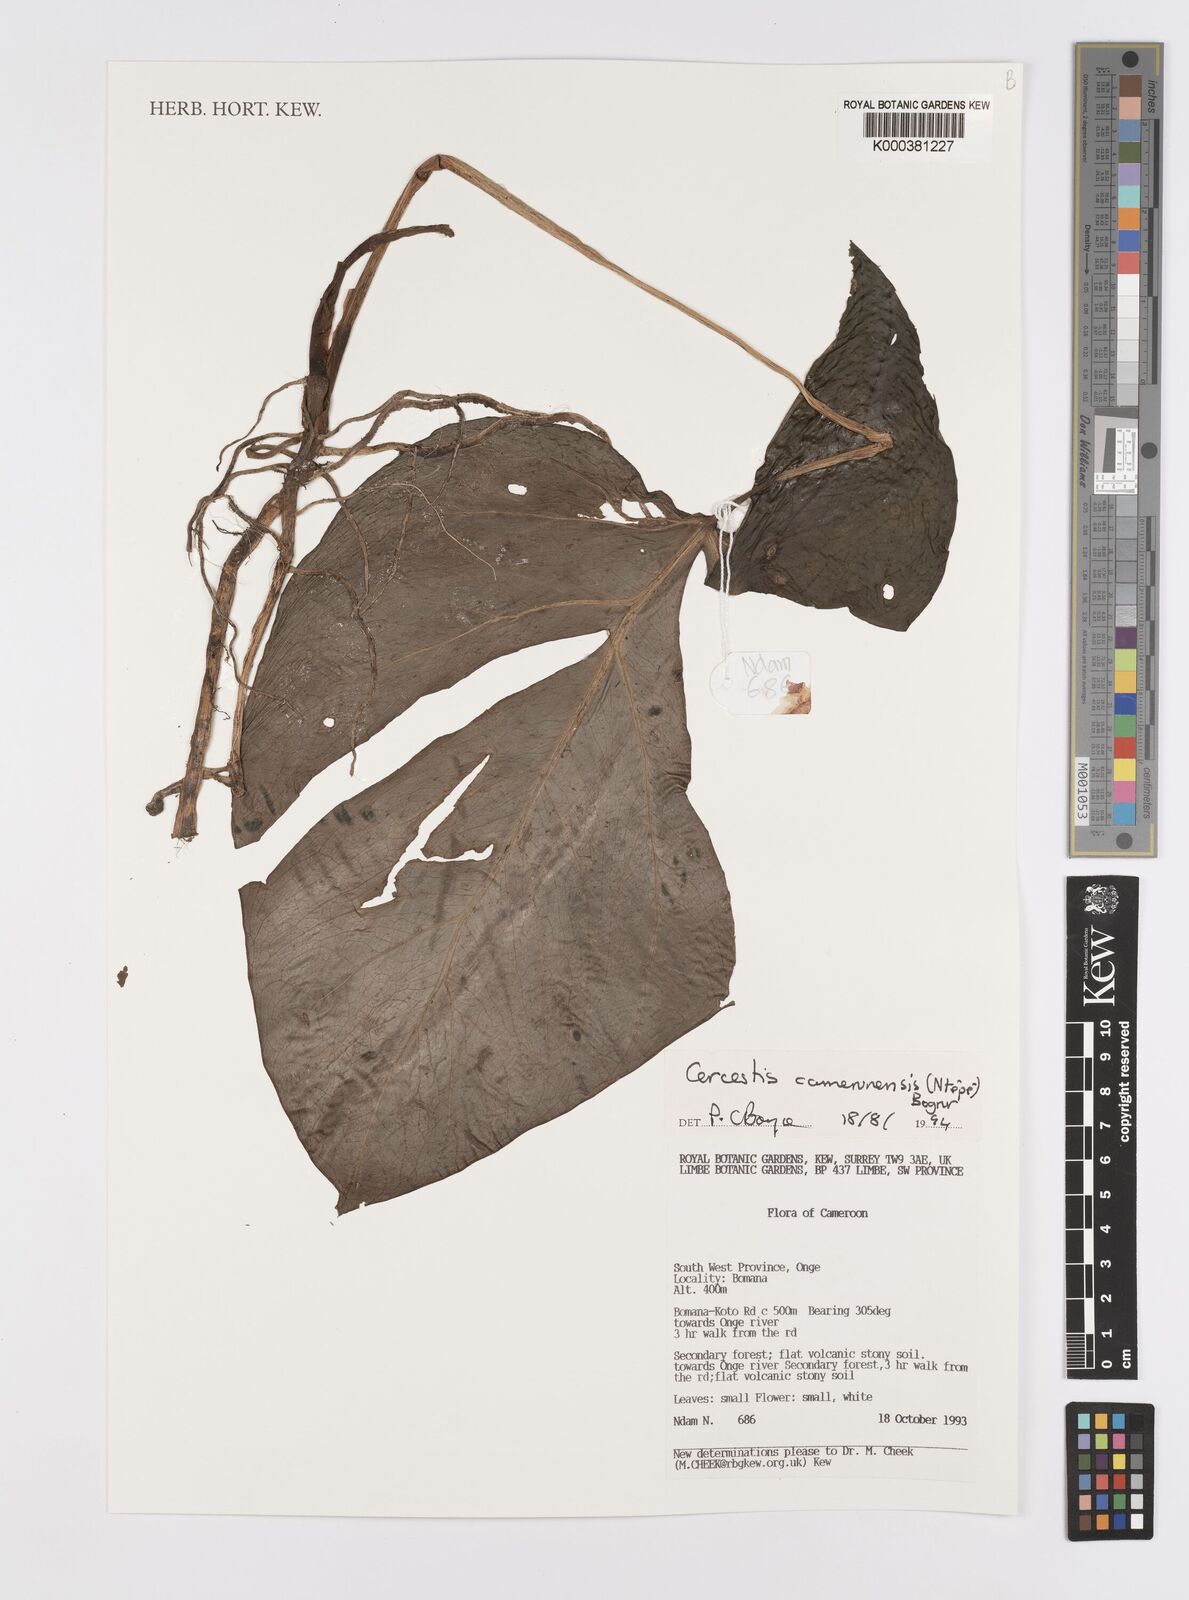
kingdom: Plantae
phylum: Tracheophyta
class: Liliopsida
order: Alismatales
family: Araceae
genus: Cercestis
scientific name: Cercestis camerunensis
